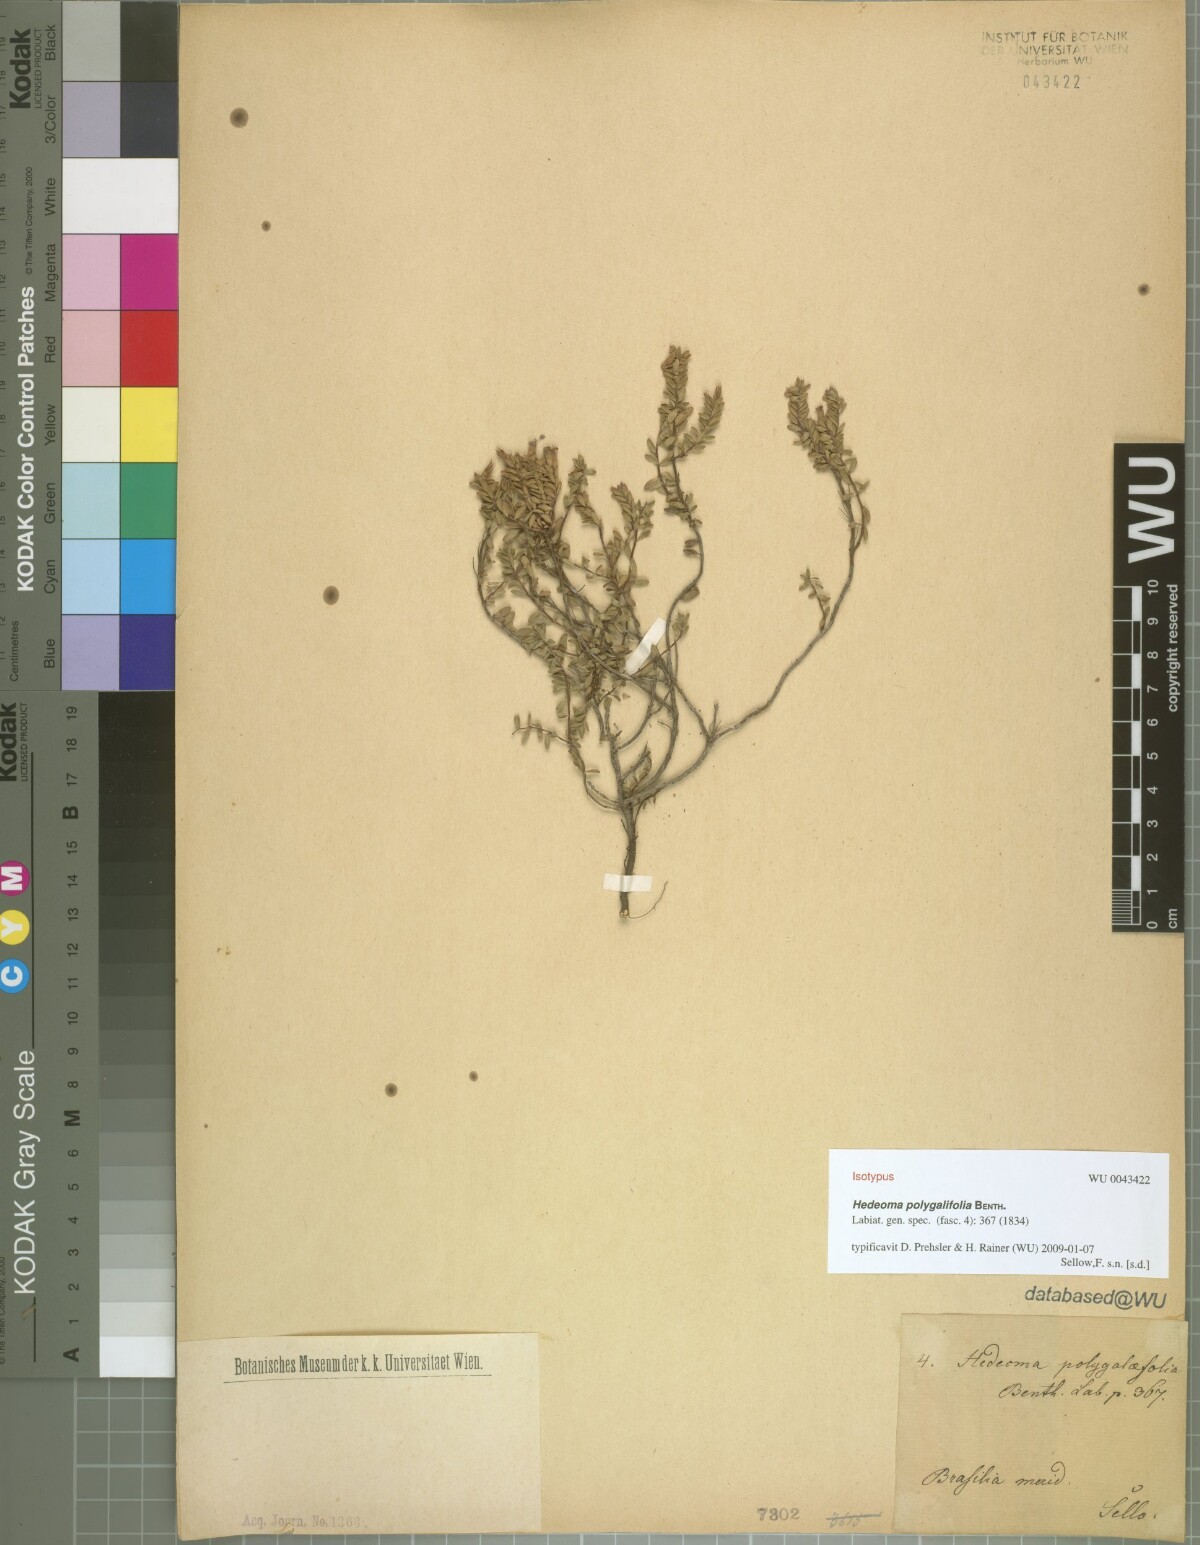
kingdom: Plantae
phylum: Tracheophyta
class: Magnoliopsida
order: Lamiales
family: Lamiaceae
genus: Hedeoma
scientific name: Hedeoma polygalifolia
